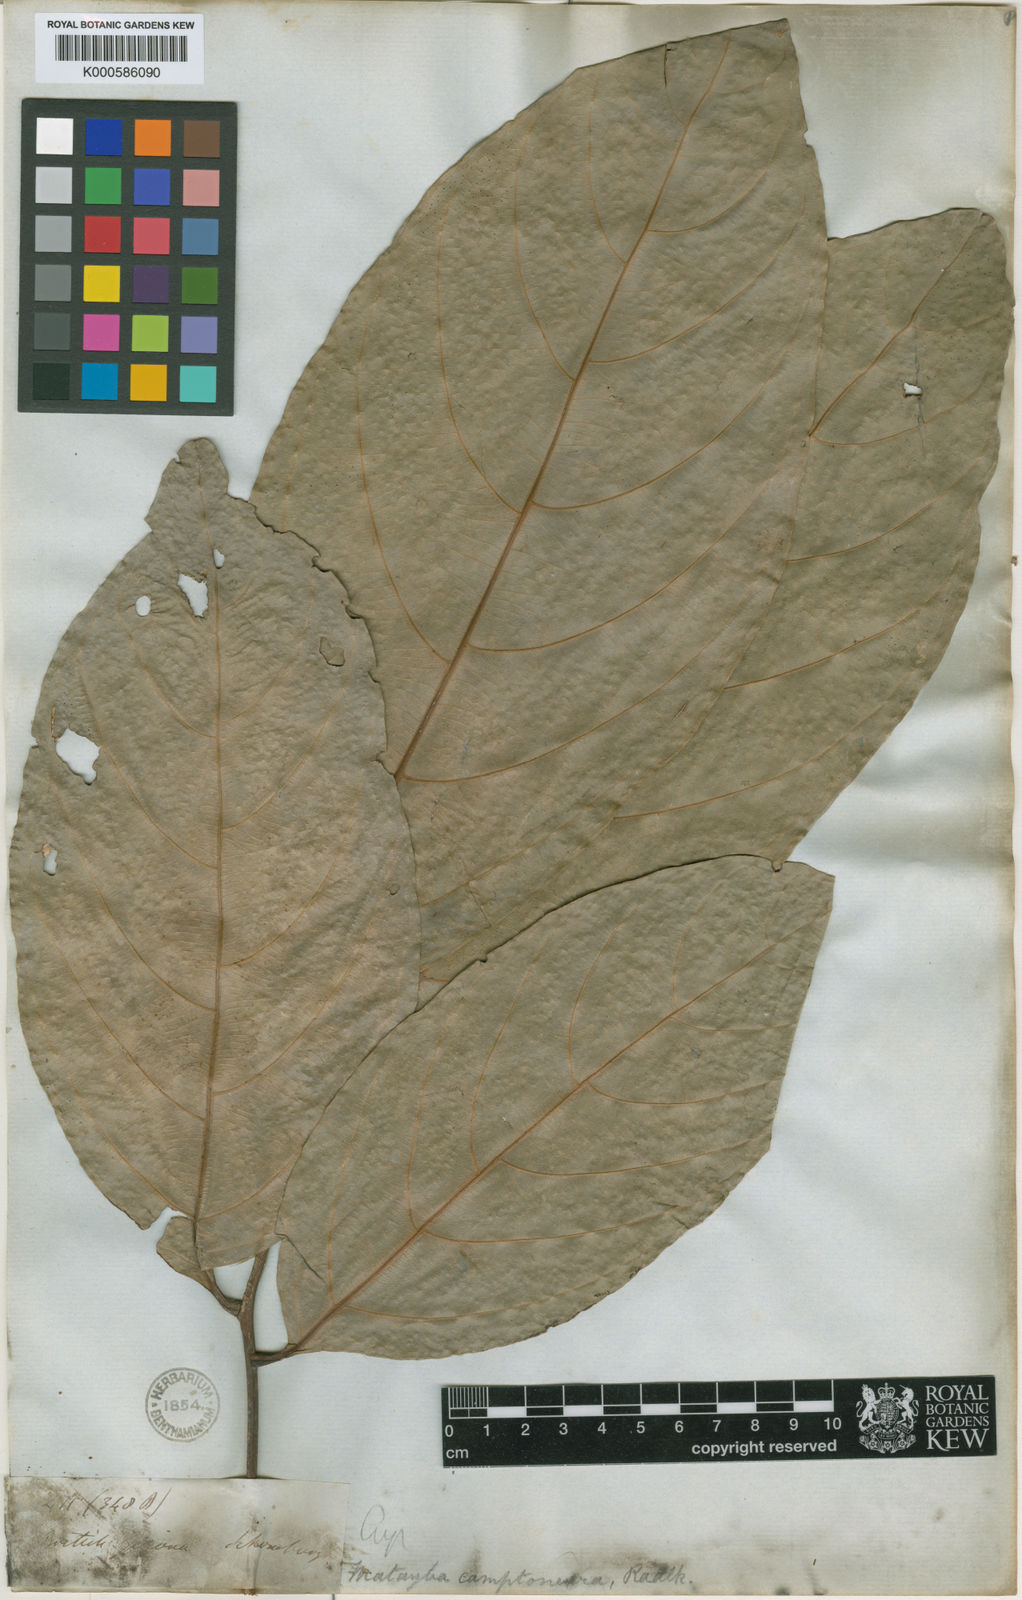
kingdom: Plantae
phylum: Tracheophyta
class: Magnoliopsida
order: Sapindales
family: Sapindaceae
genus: Matayba
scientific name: Matayba camptoneura
